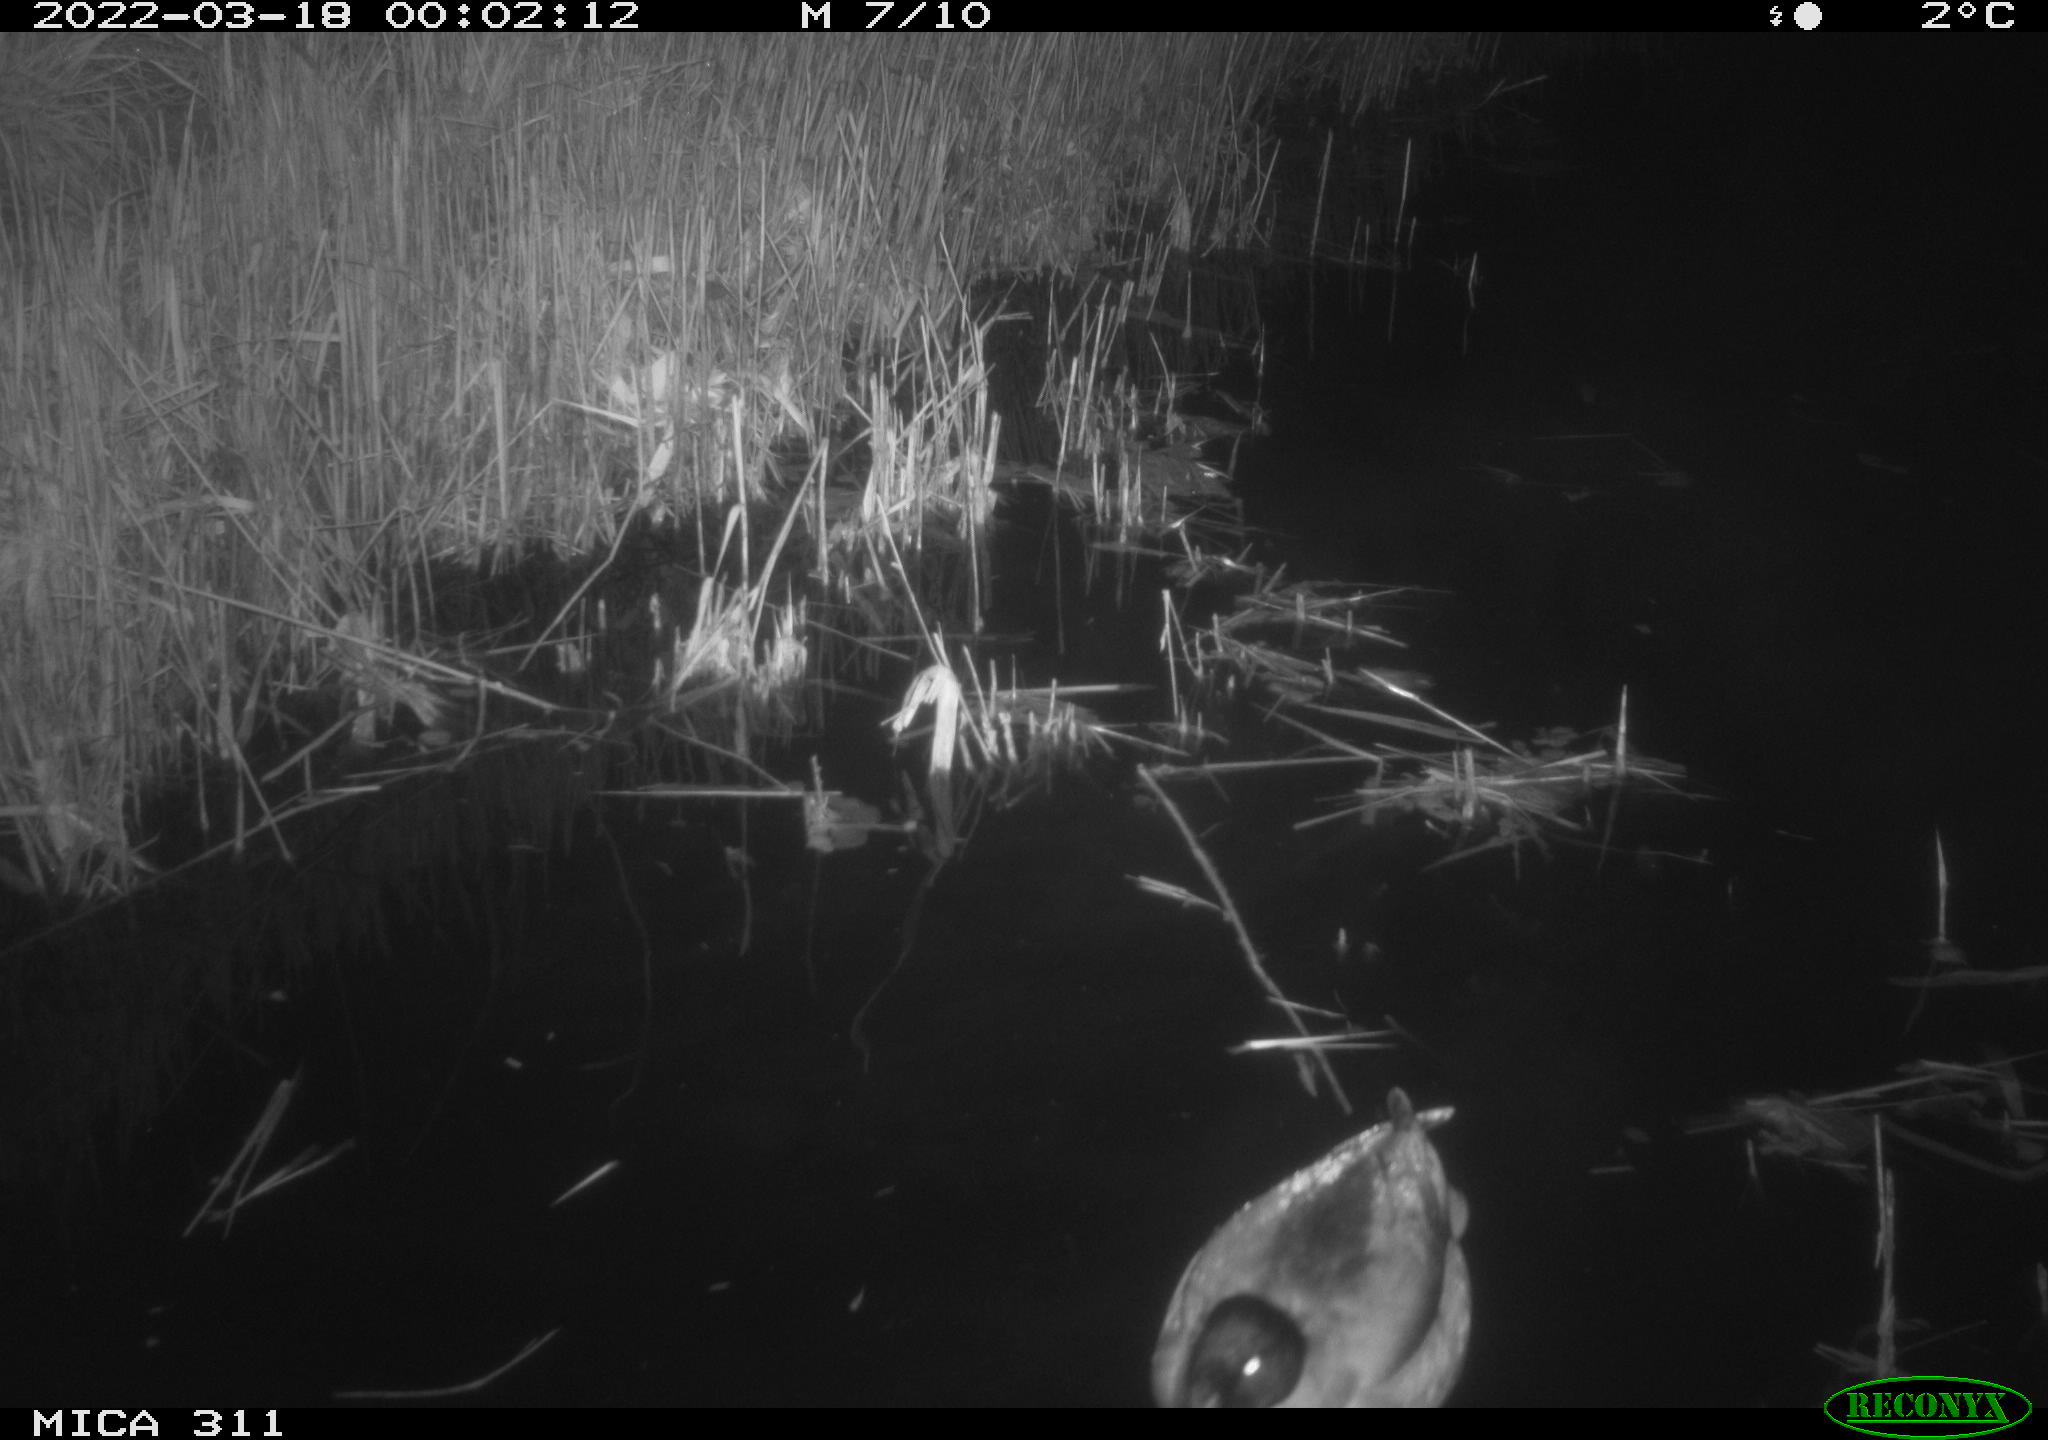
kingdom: Animalia
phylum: Chordata
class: Aves
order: Anseriformes
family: Anatidae
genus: Anas
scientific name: Anas
